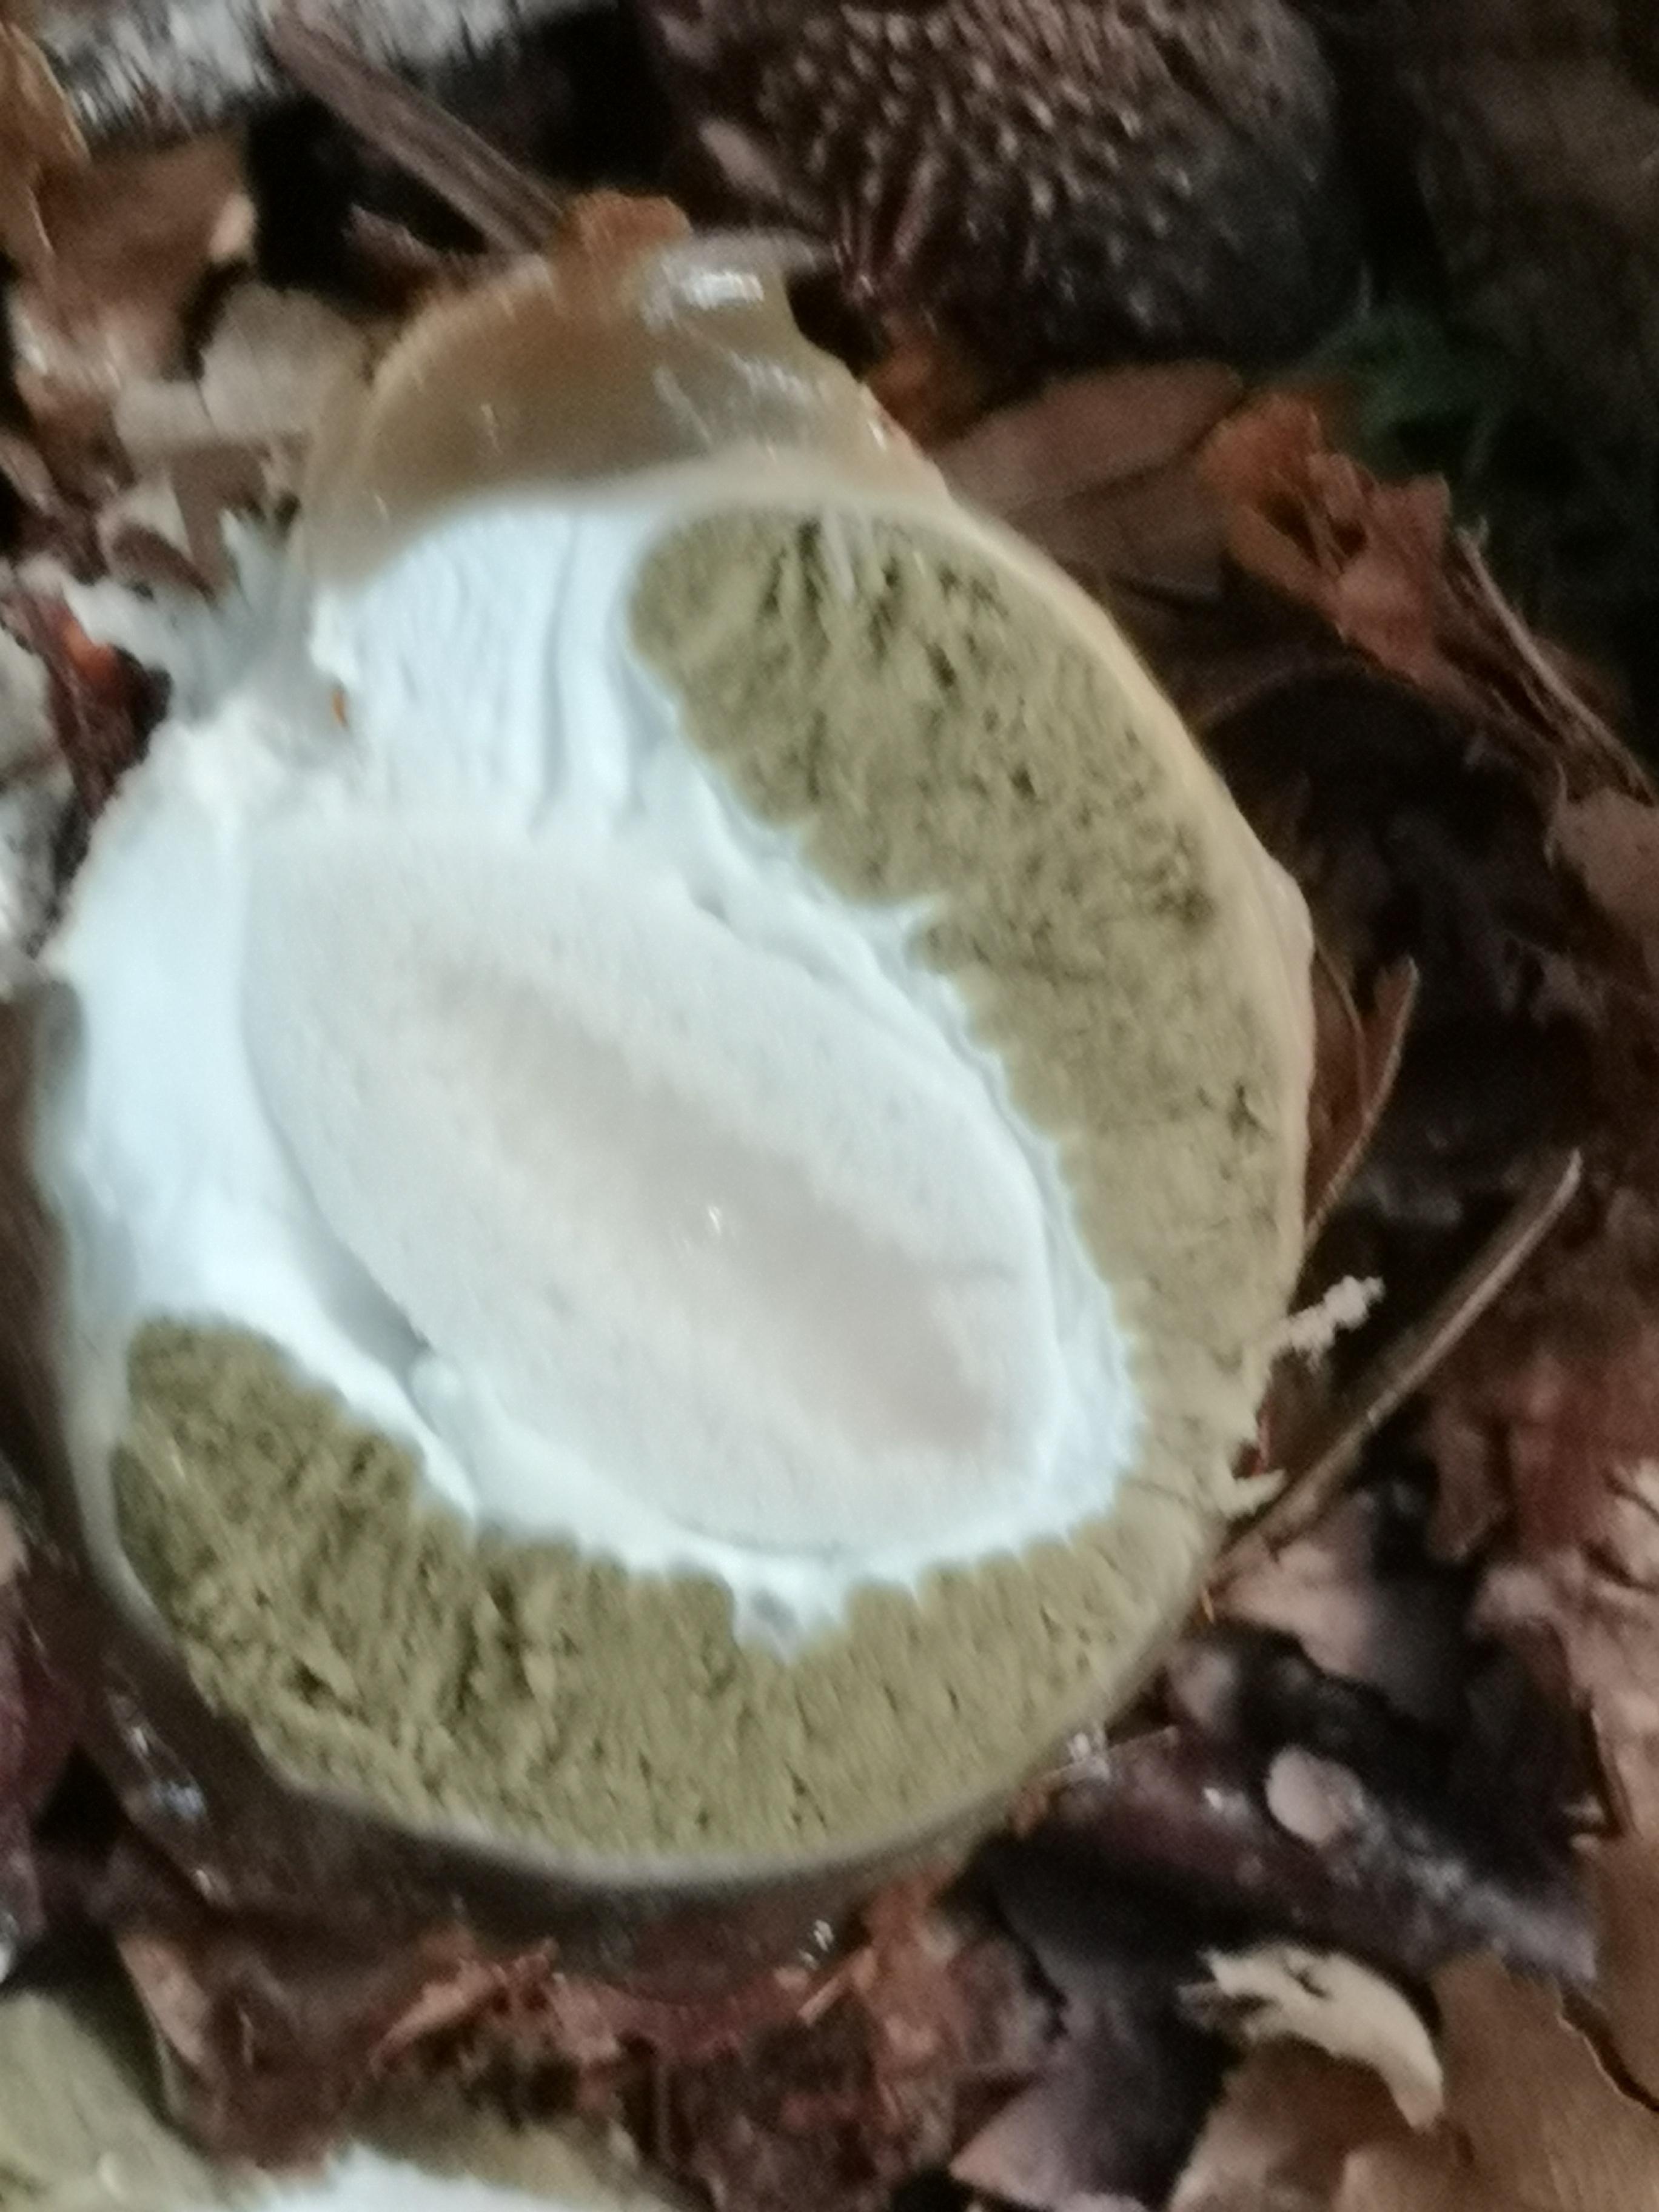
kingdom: Fungi
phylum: Basidiomycota
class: Agaricomycetes
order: Phallales
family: Phallaceae
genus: Phallus
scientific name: Phallus impudicus
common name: almindelig stinksvamp
